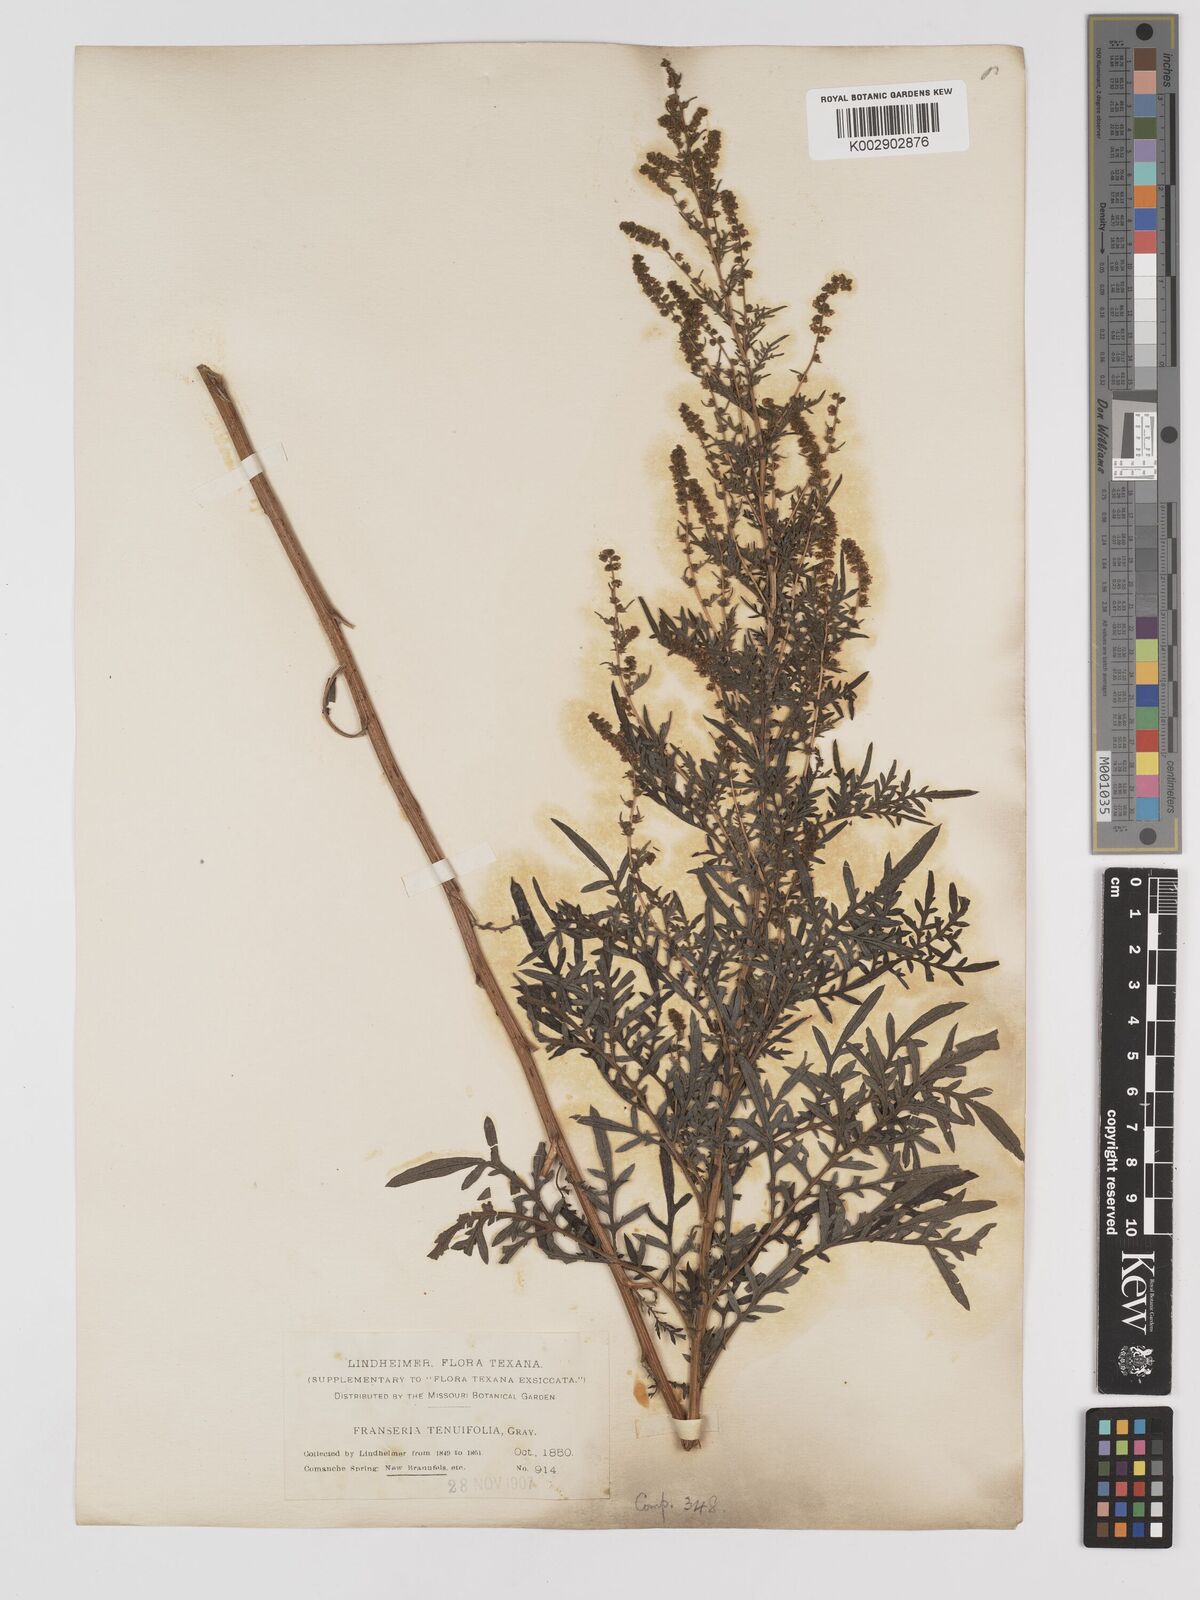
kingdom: Plantae
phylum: Tracheophyta
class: Magnoliopsida
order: Asterales
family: Asteraceae
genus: Ambrosia
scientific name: Ambrosia confertiflora
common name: Bur ragweed
